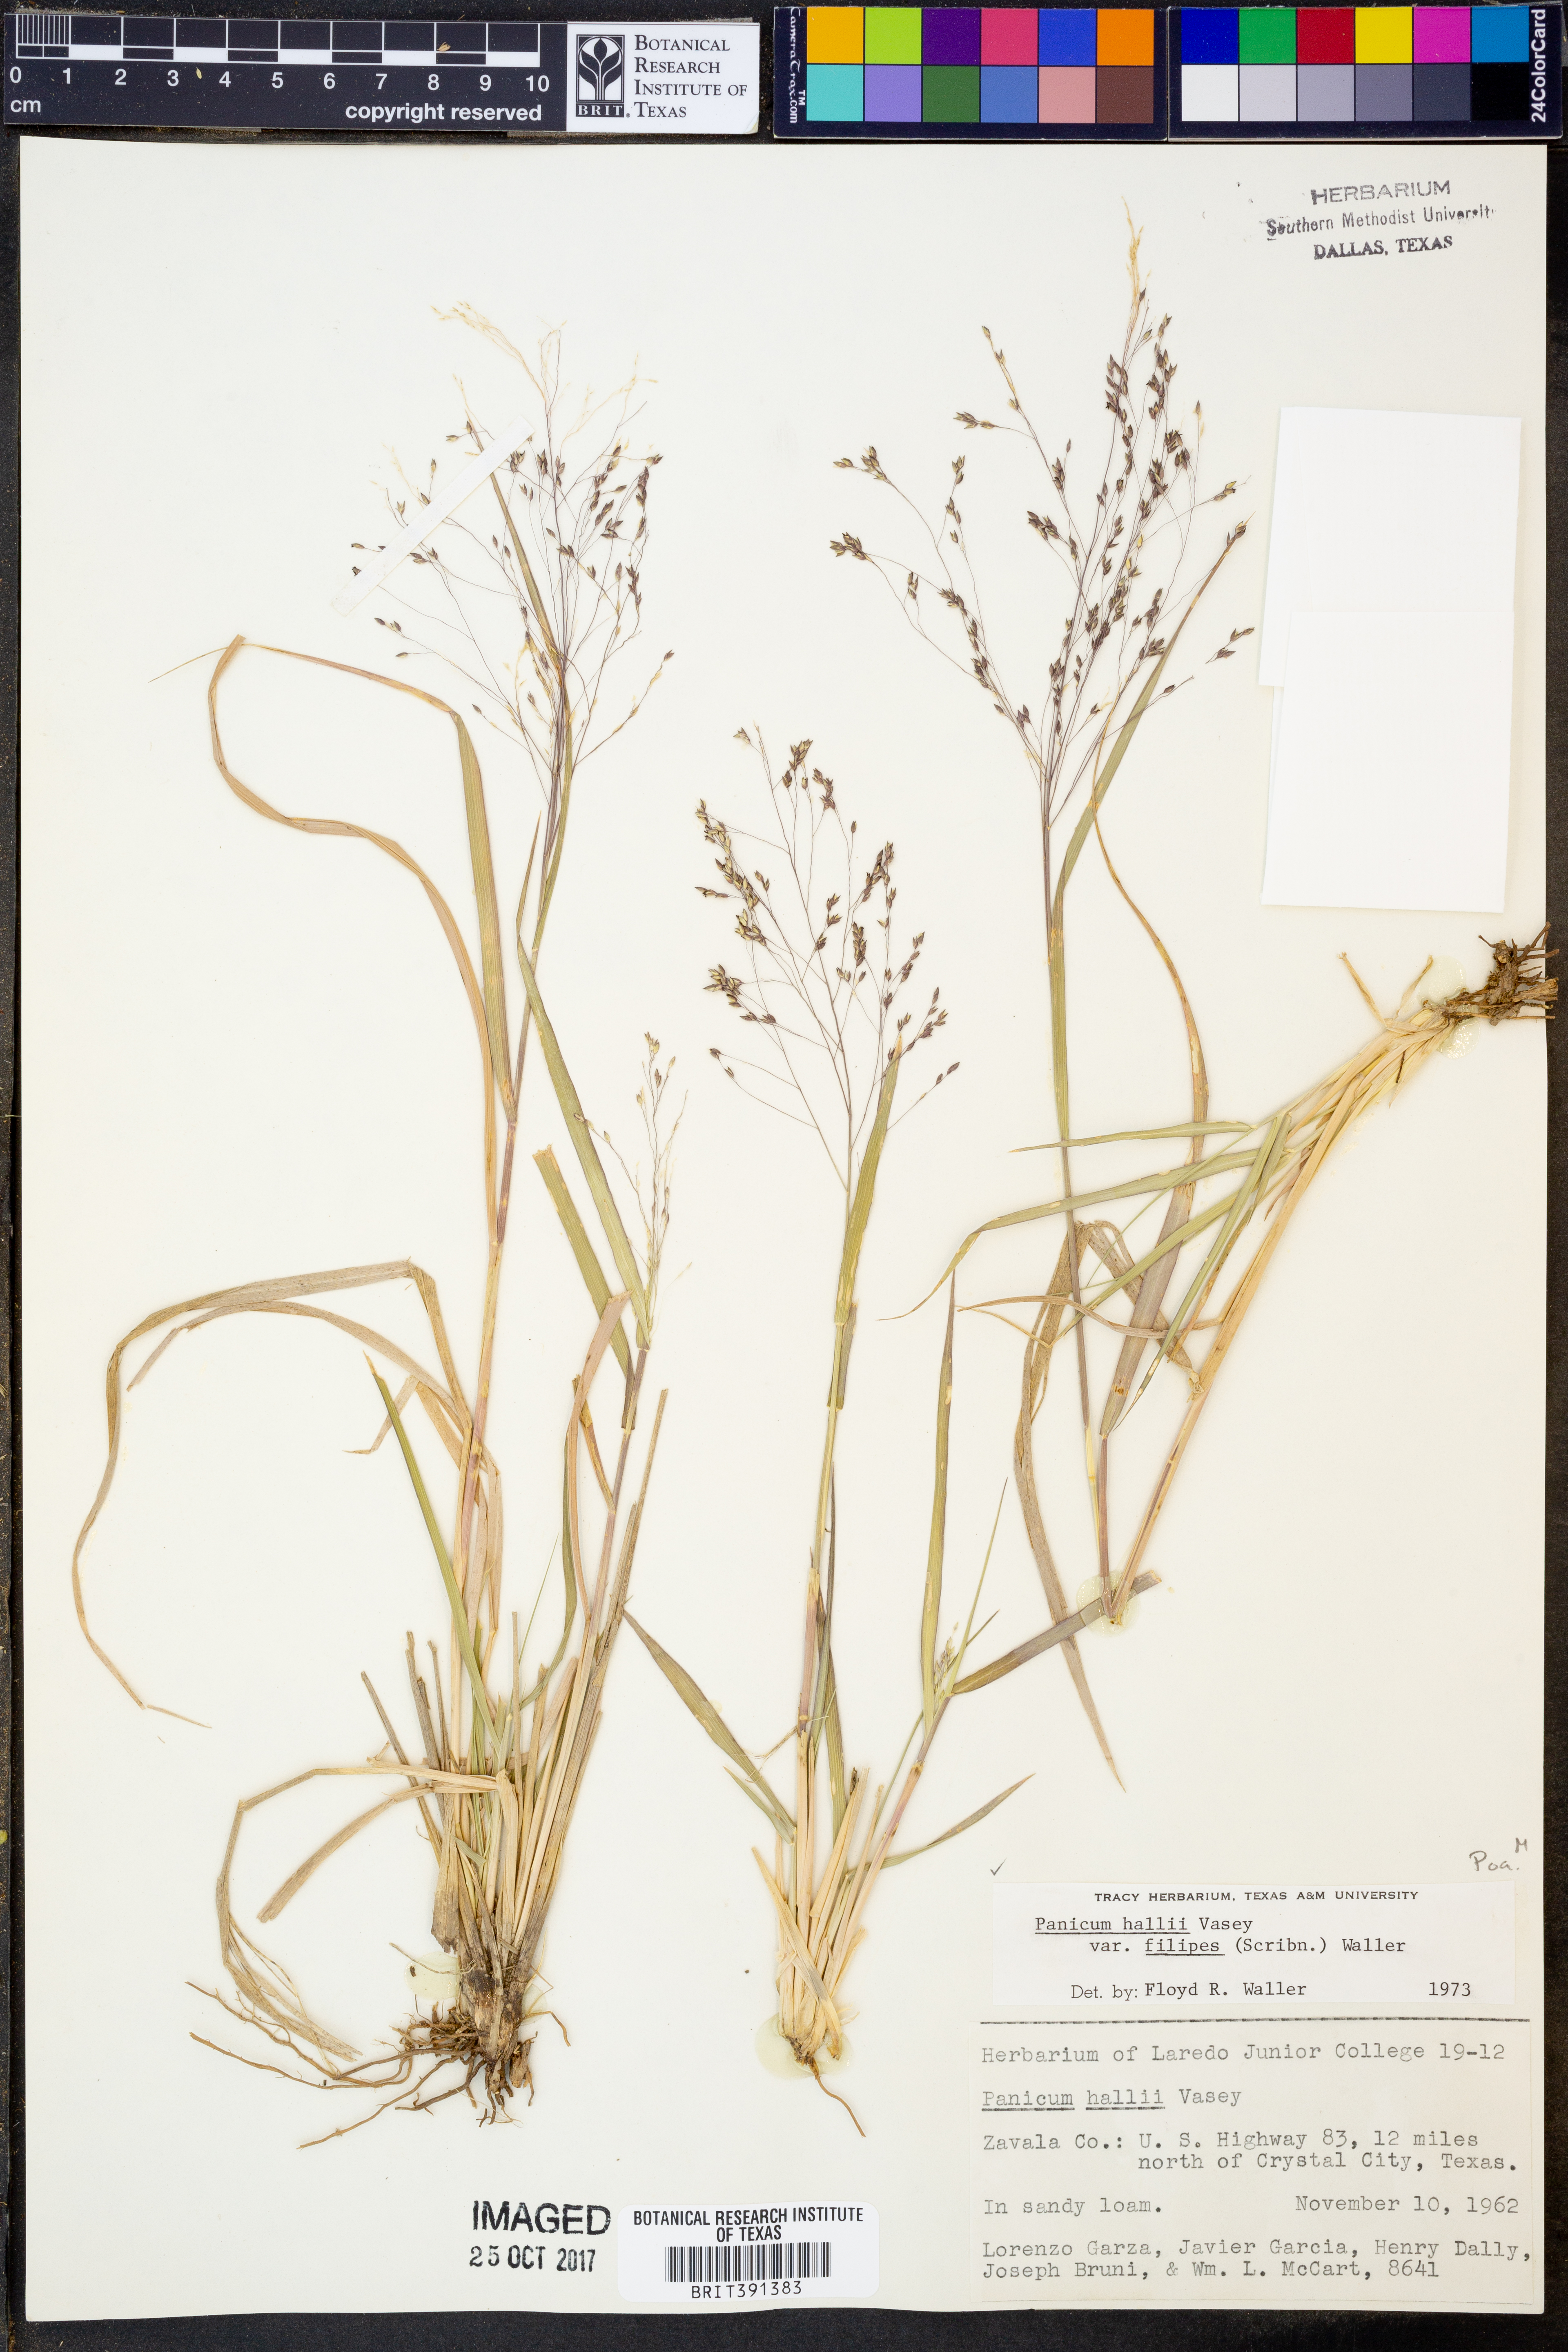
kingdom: Plantae
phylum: Tracheophyta
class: Liliopsida
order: Poales
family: Poaceae
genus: Panicum
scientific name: Panicum hallii
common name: Hall's witchgrass
